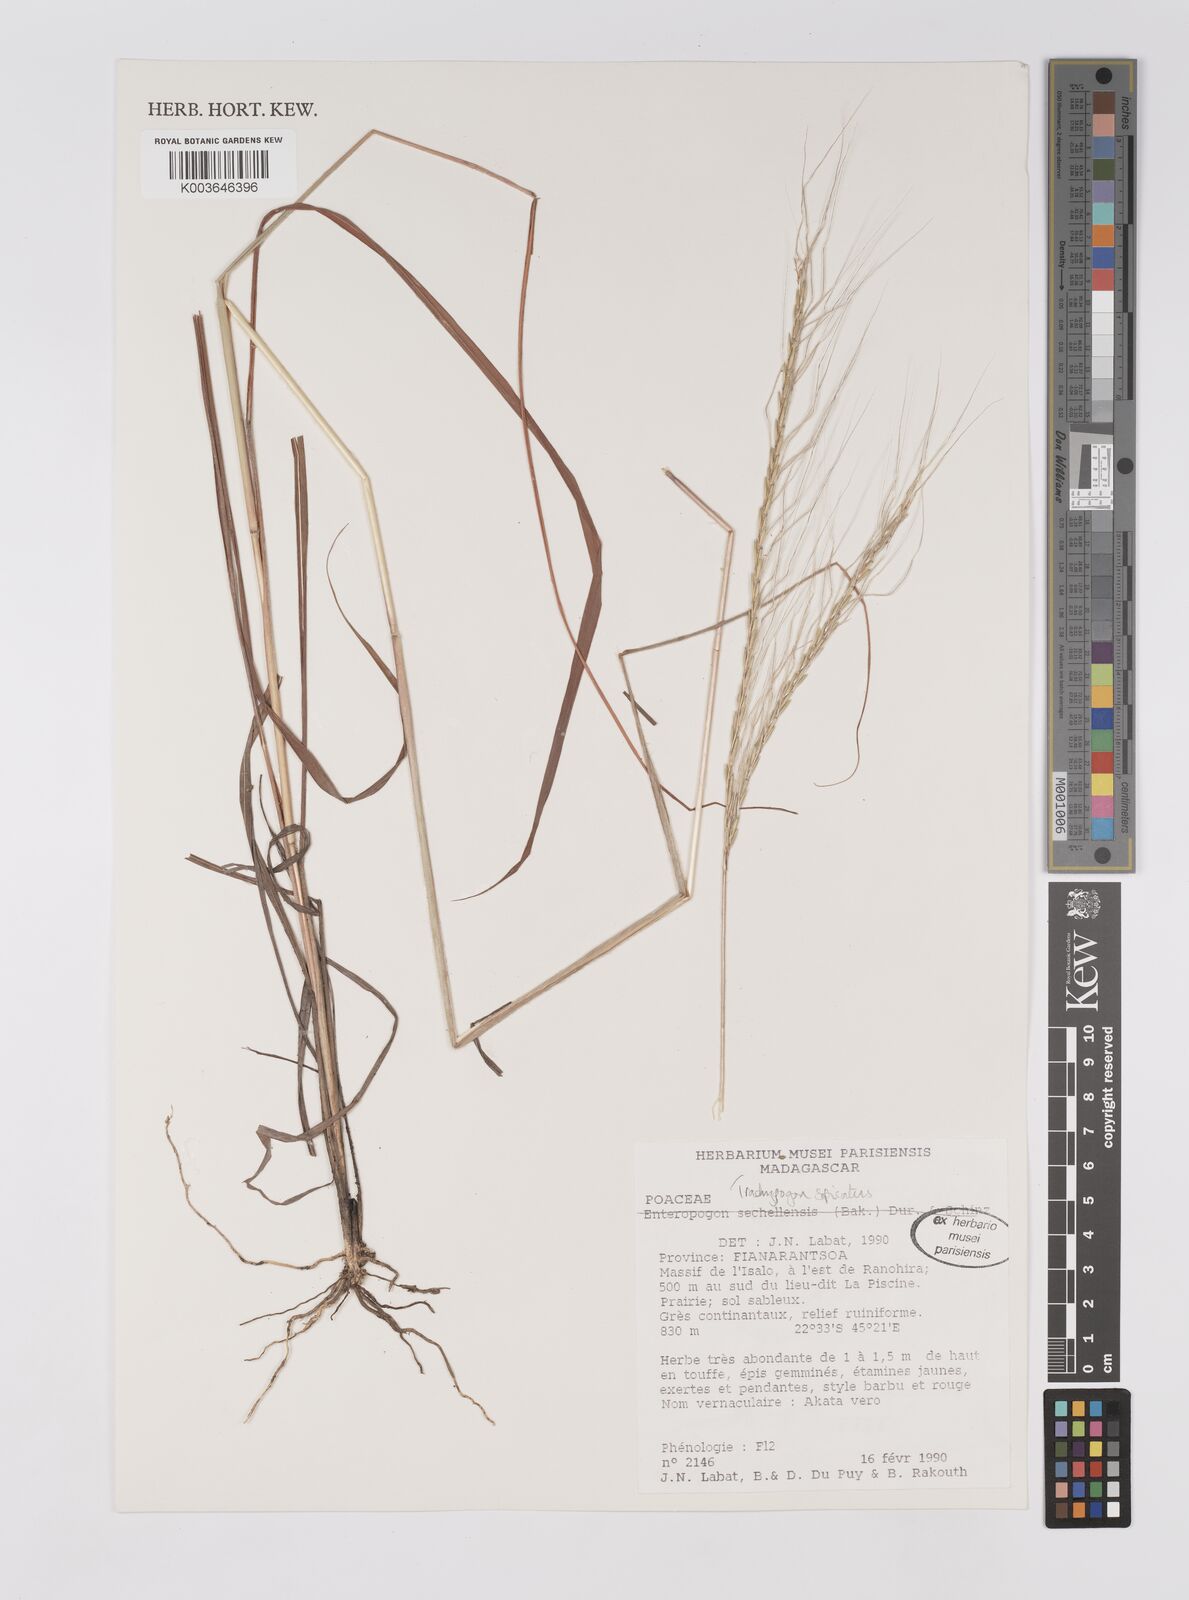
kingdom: Plantae
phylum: Tracheophyta
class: Liliopsida
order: Poales
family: Poaceae
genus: Trachypogon
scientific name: Trachypogon spicatus
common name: Crinkle-awn
